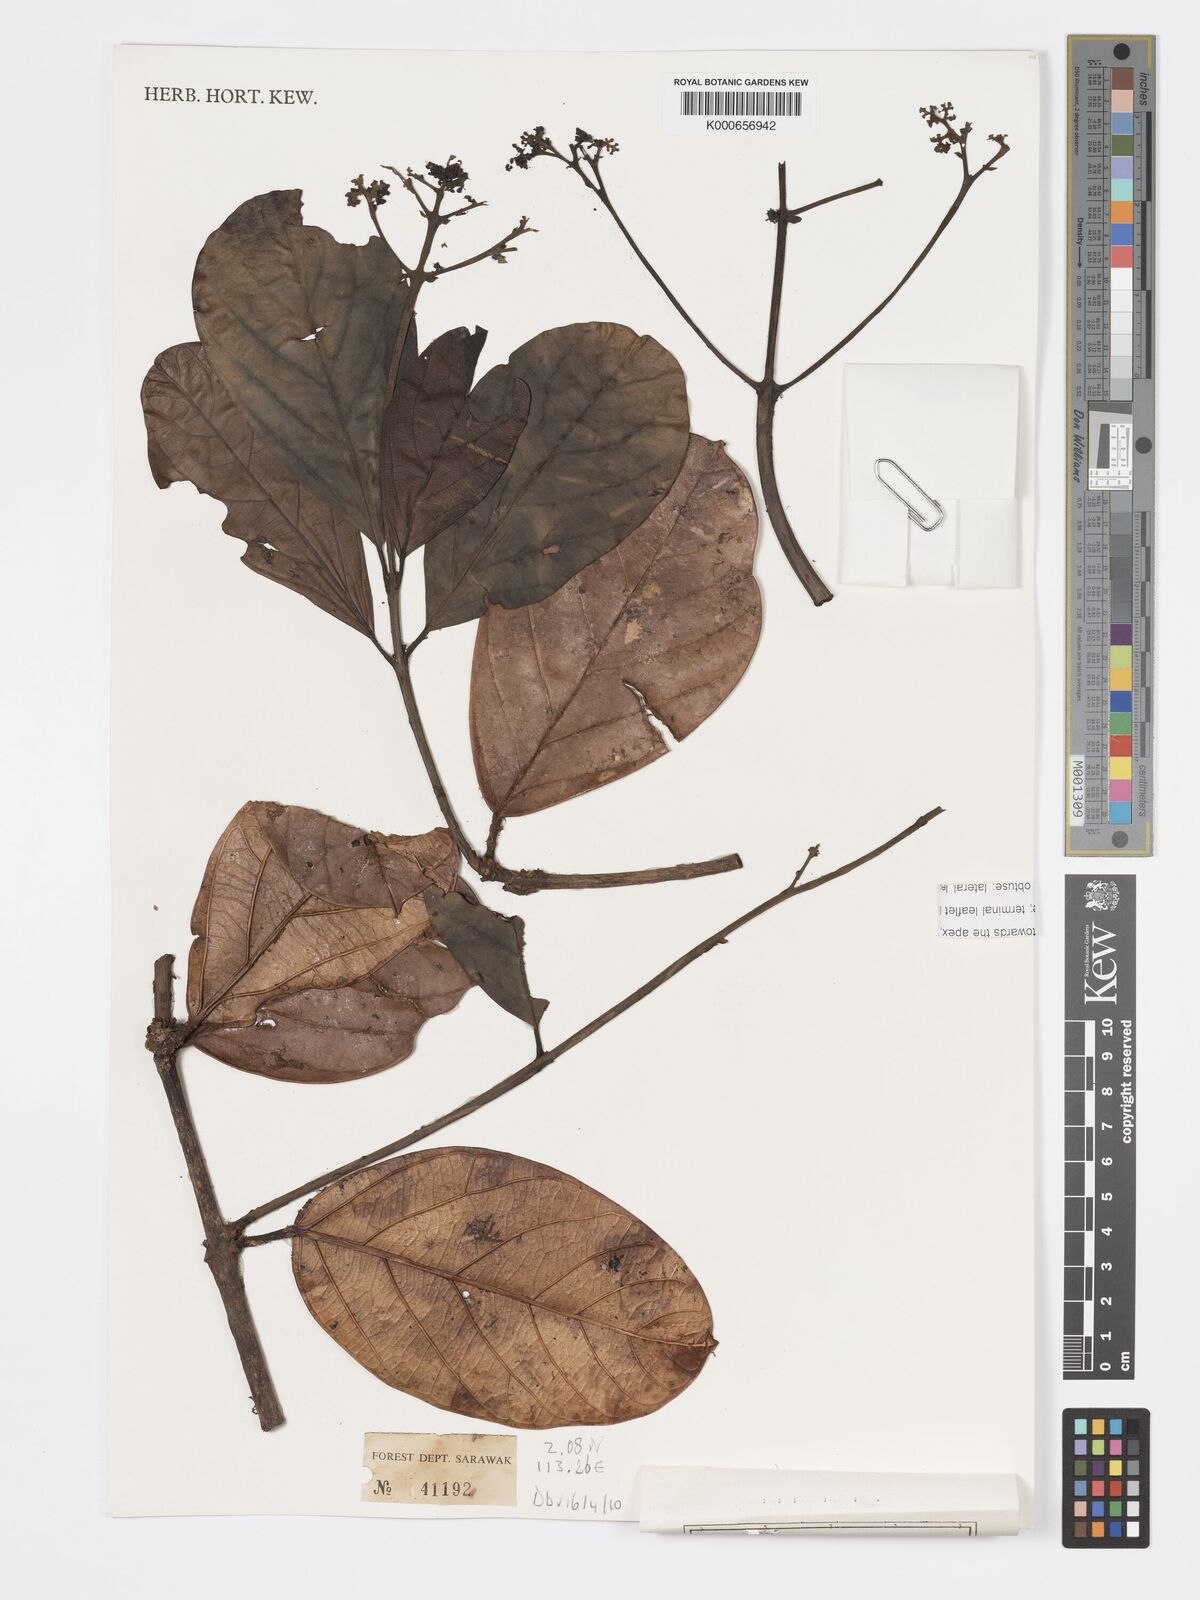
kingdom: Plantae
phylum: Tracheophyta
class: Magnoliopsida
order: Lamiales
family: Lamiaceae
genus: Premna
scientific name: Premna trichostoma
